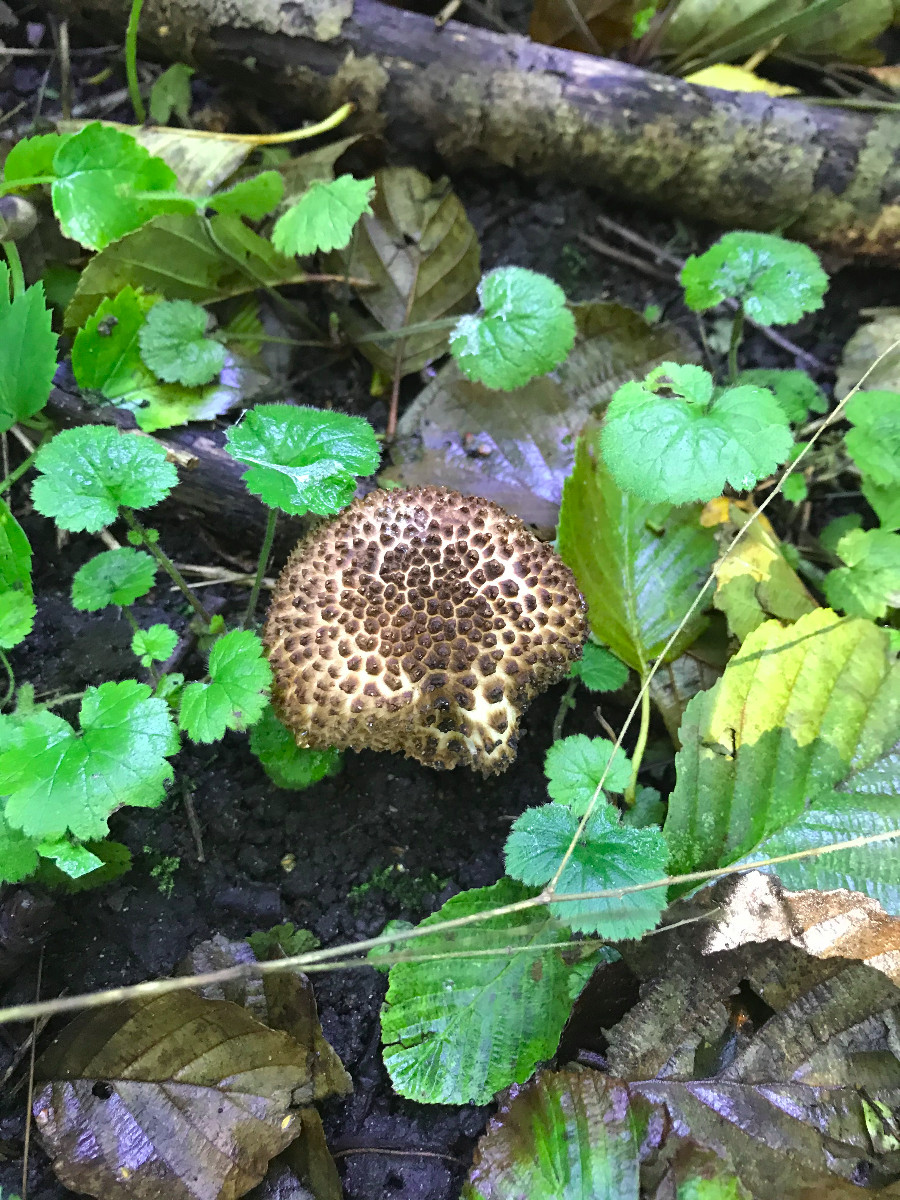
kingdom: Fungi
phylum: Basidiomycota
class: Agaricomycetes
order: Agaricales
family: Agaricaceae
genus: Echinoderma
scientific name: Echinoderma asperum
